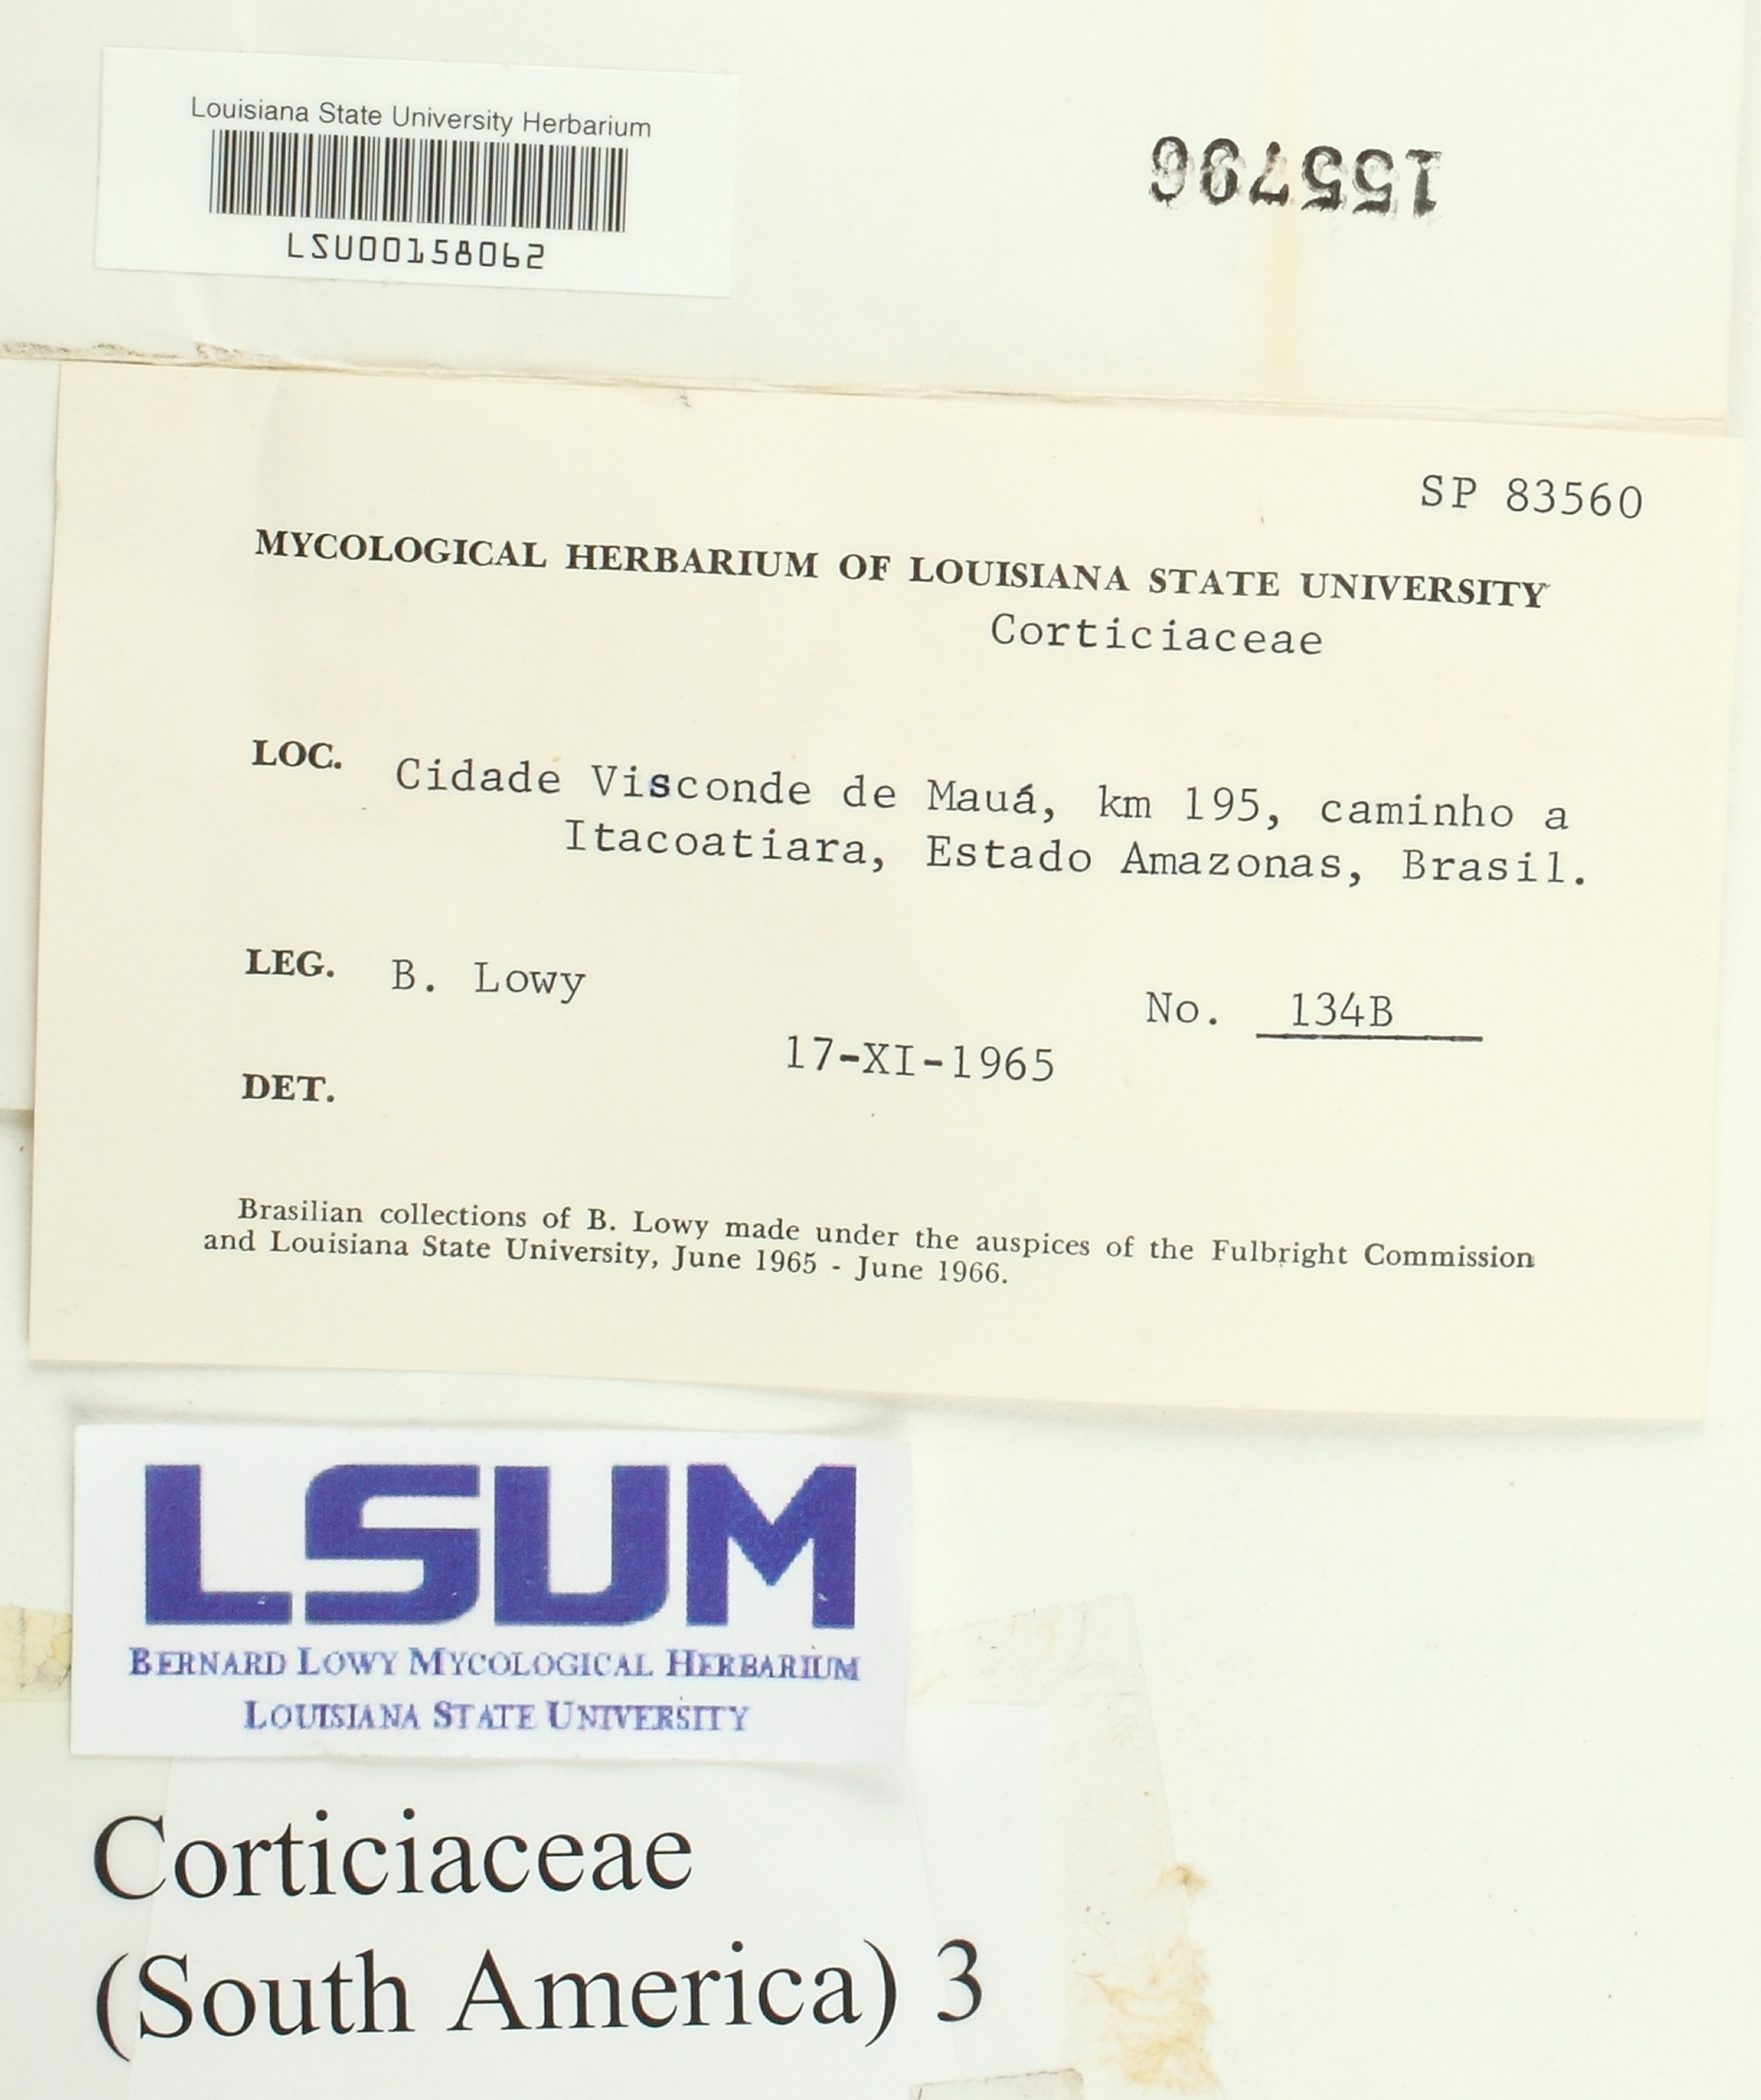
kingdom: Fungi
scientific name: Fungi
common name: Fungi
